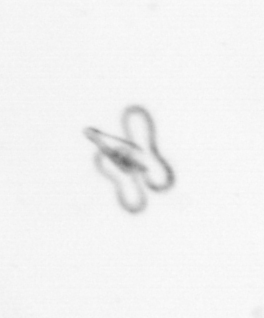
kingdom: Animalia
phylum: Mollusca
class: Gastropoda
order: Pteropoda
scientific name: Pteropoda
